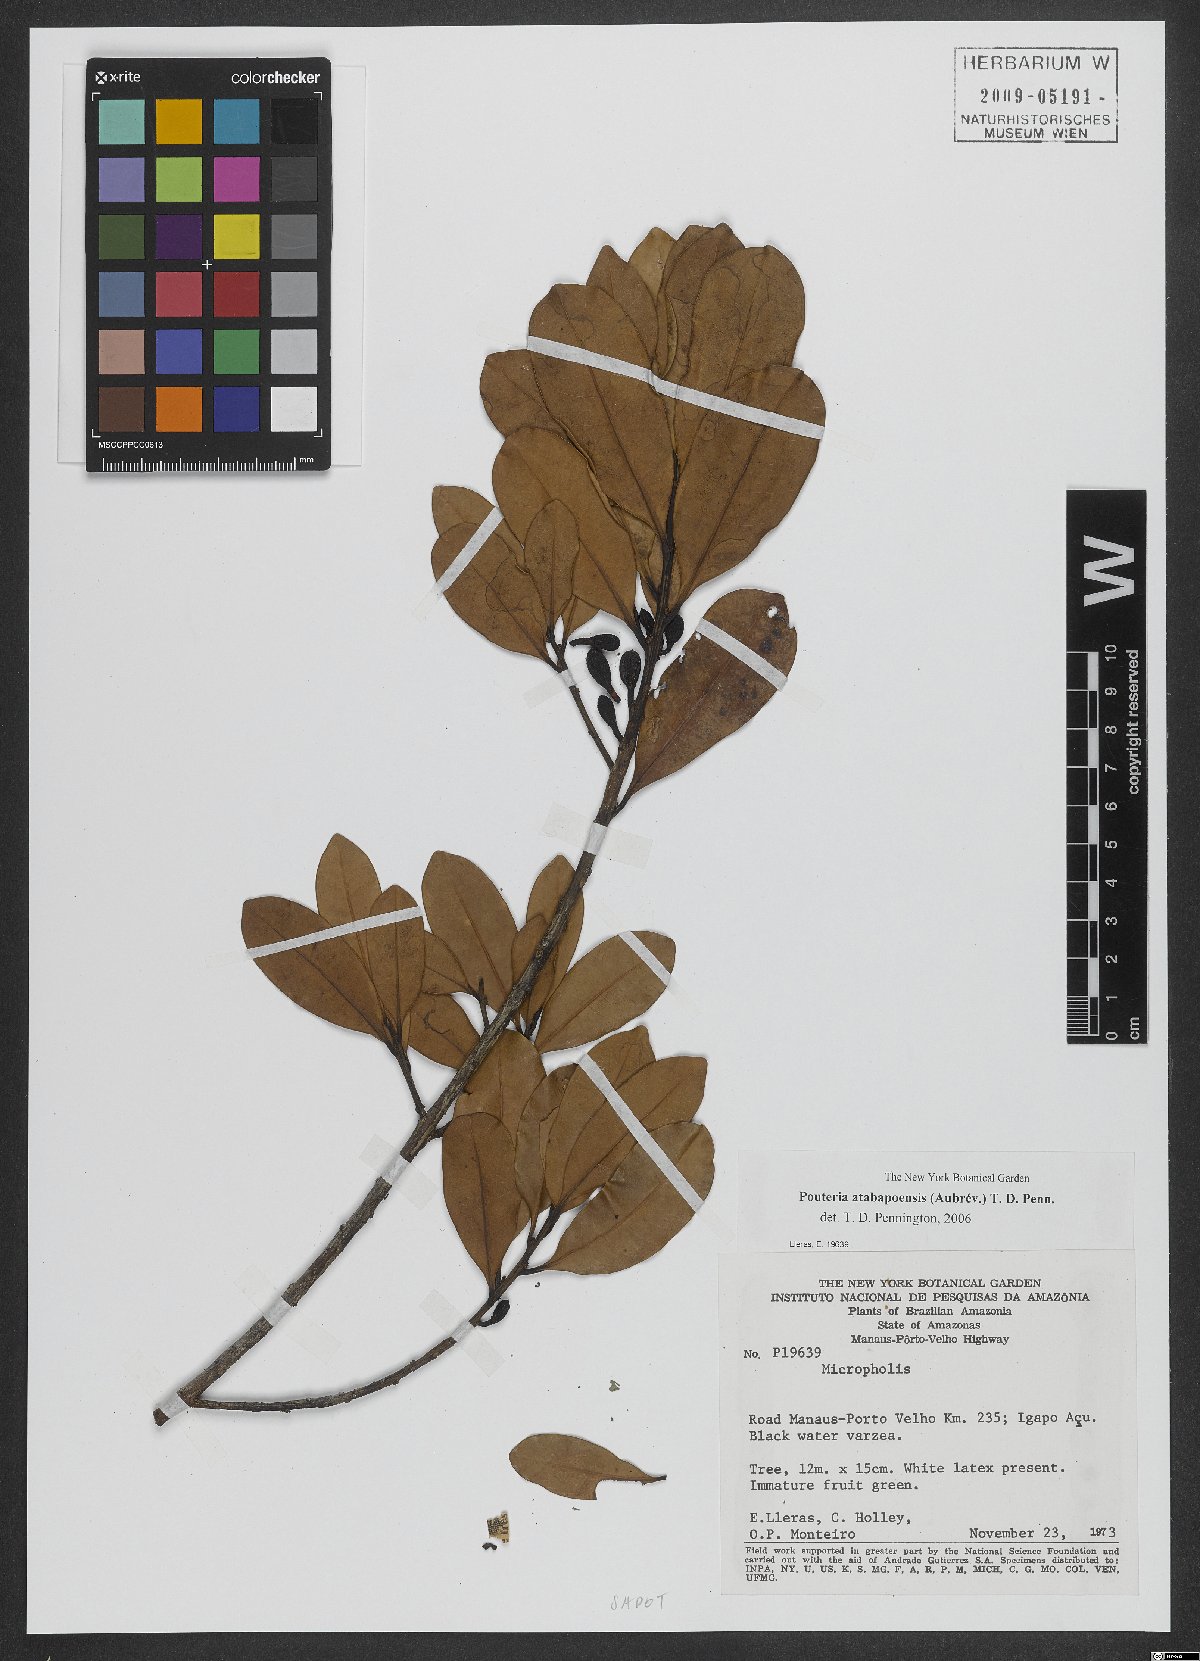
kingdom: Plantae
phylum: Tracheophyta
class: Magnoliopsida
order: Ericales
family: Sapotaceae
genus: Pouteria
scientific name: Pouteria atabapoensis
